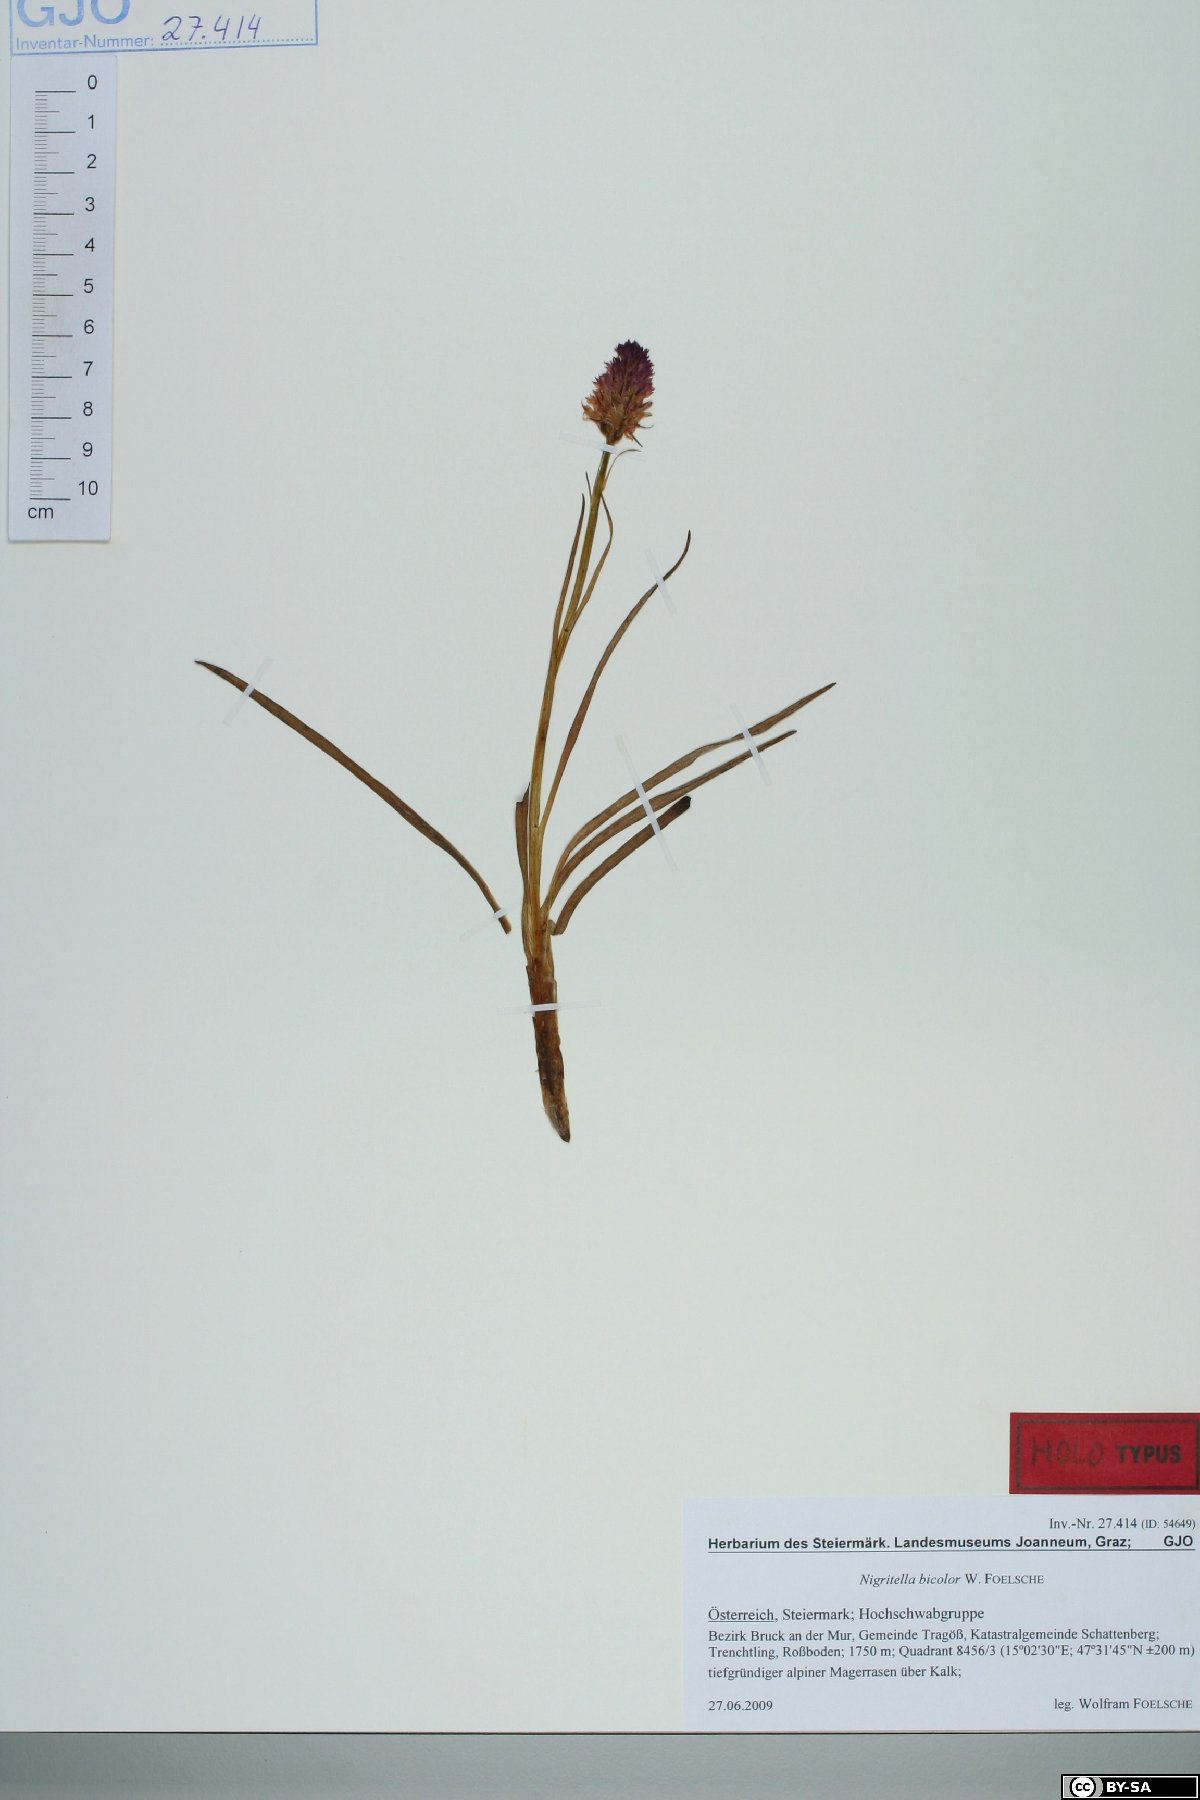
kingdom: Plantae
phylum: Tracheophyta
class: Liliopsida
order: Asparagales
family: Orchidaceae
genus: Gymnadenia
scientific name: Gymnadenia bicolor
